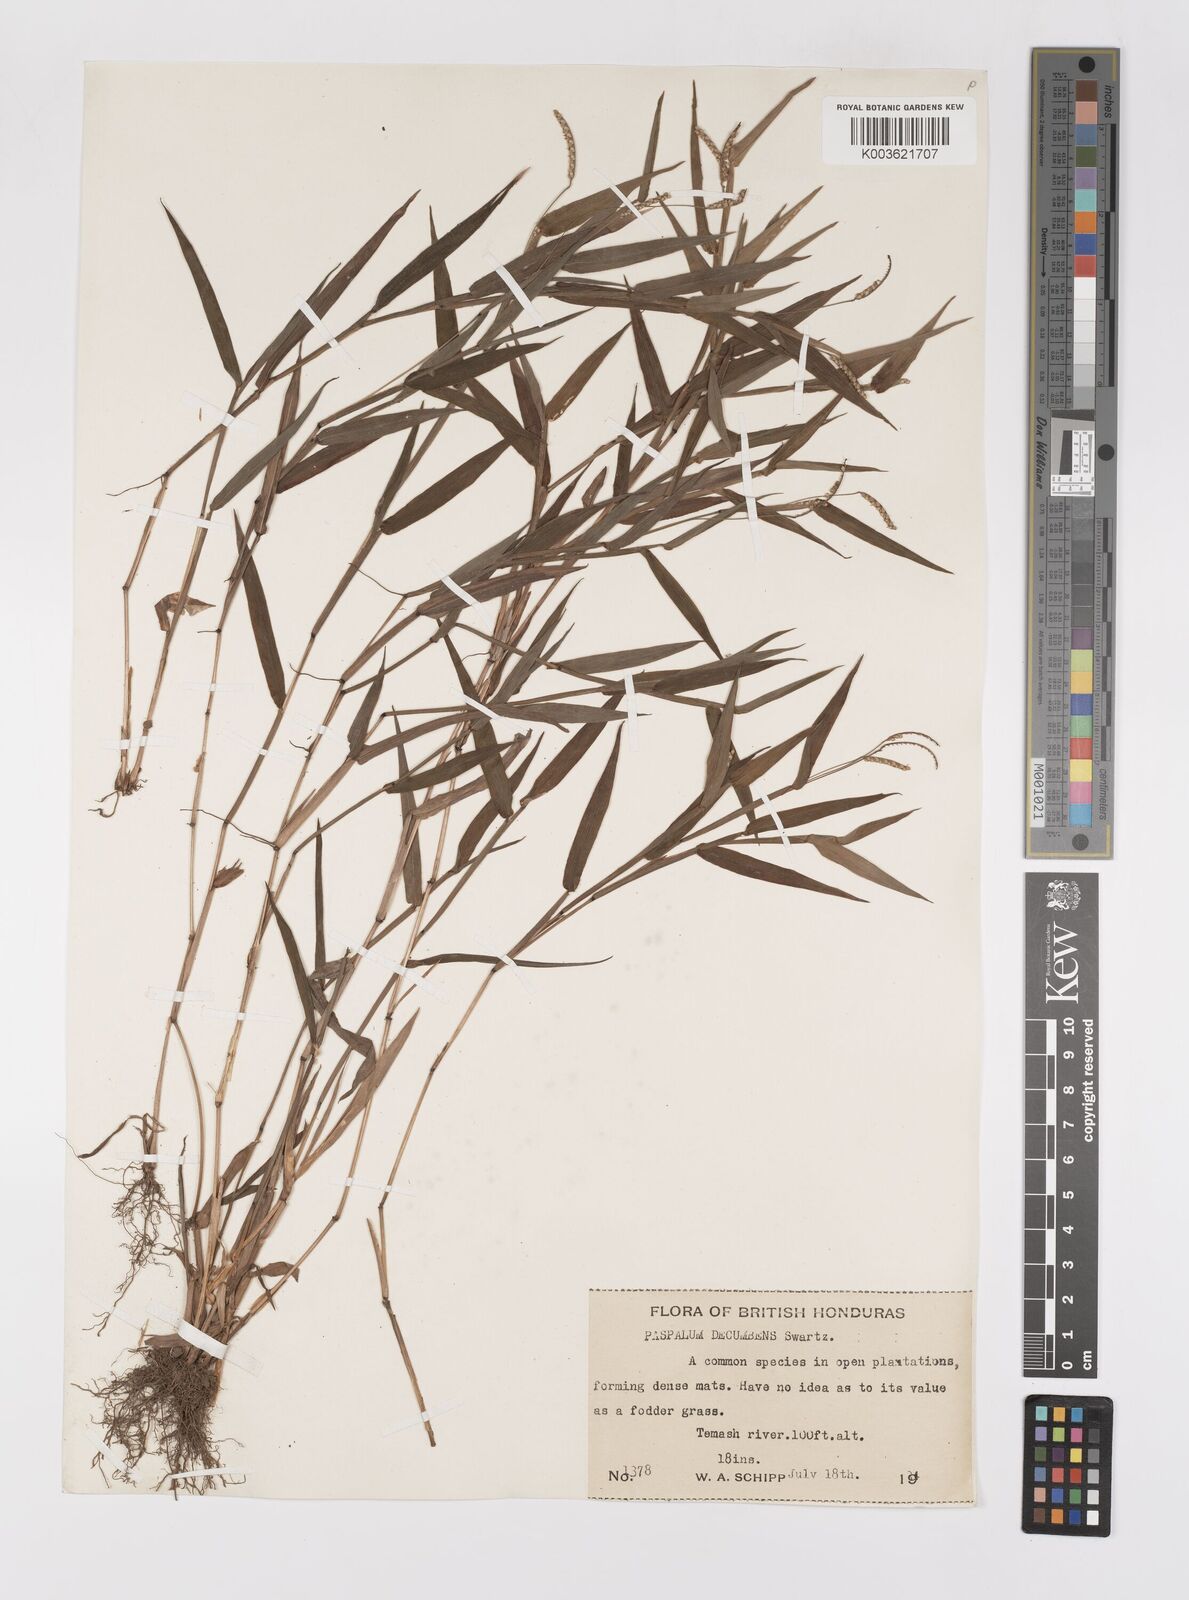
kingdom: Plantae
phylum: Tracheophyta
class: Liliopsida
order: Poales
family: Poaceae
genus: Paspalum
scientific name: Paspalum
